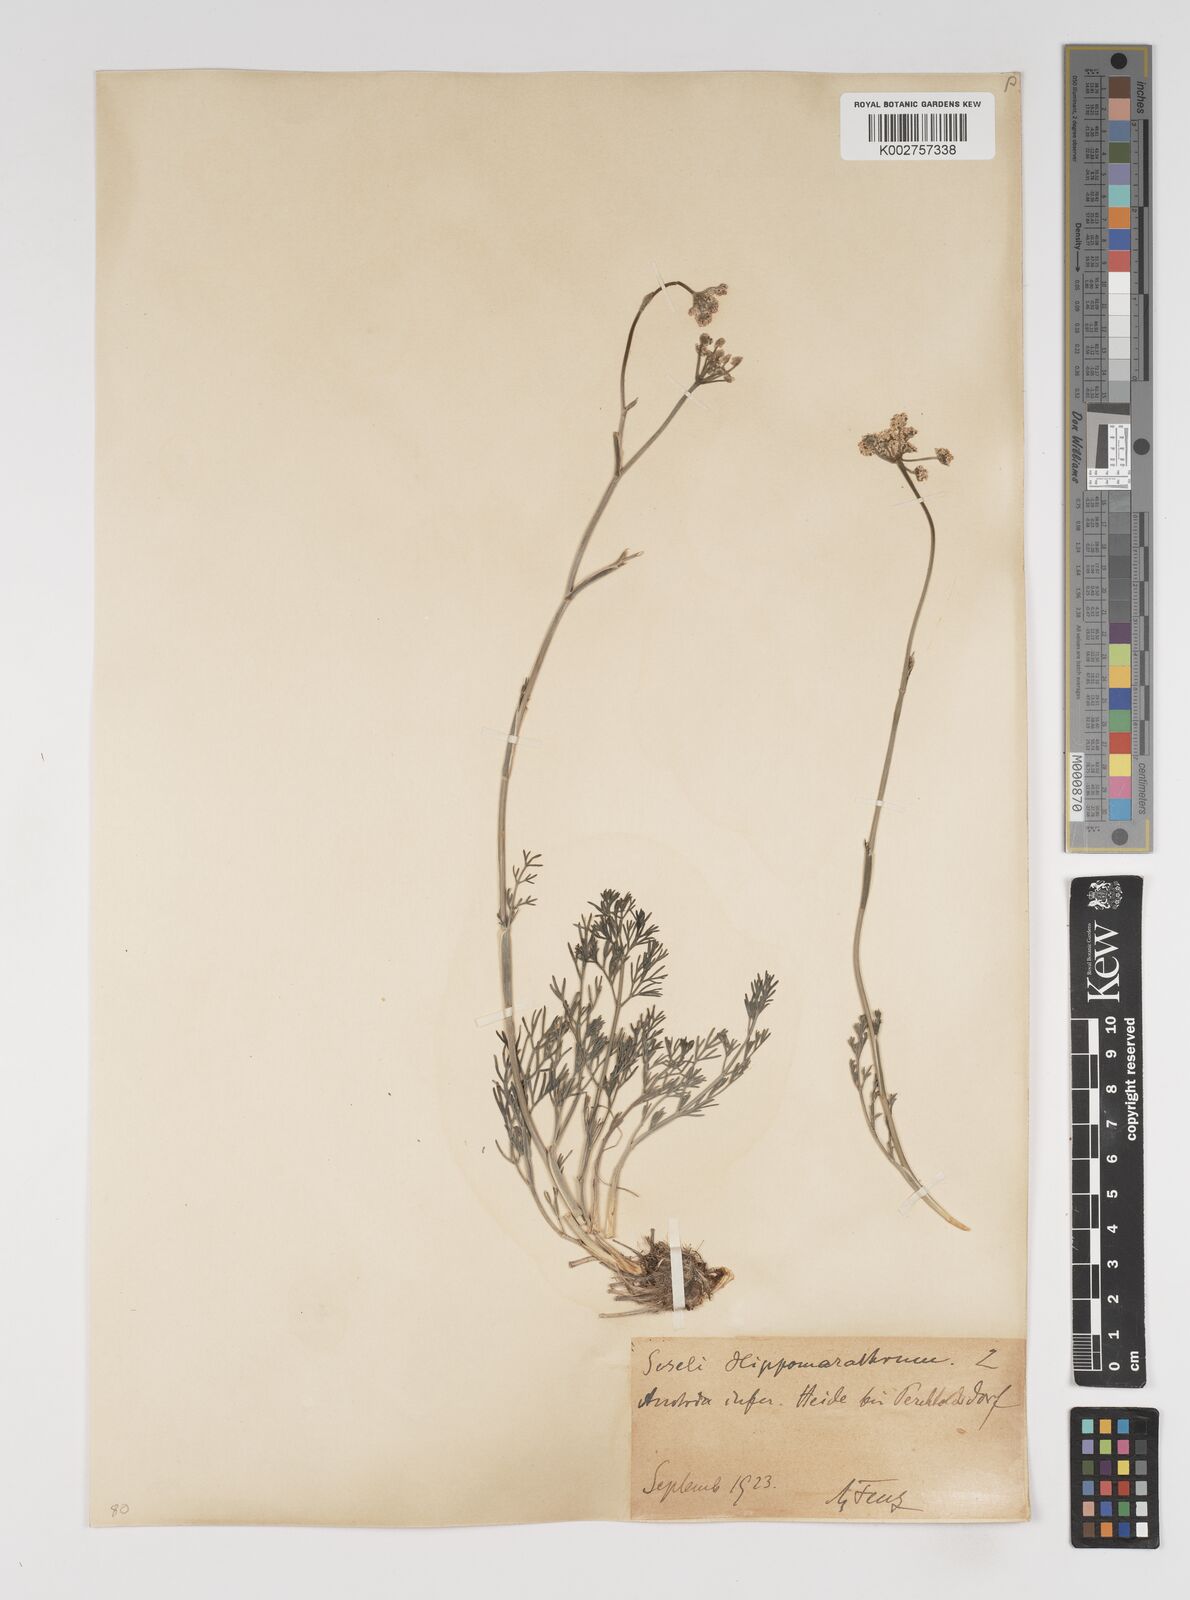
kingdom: Plantae
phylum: Tracheophyta
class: Magnoliopsida
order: Apiales
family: Apiaceae
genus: Hippomarathrum
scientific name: Hippomarathrum vulgare
